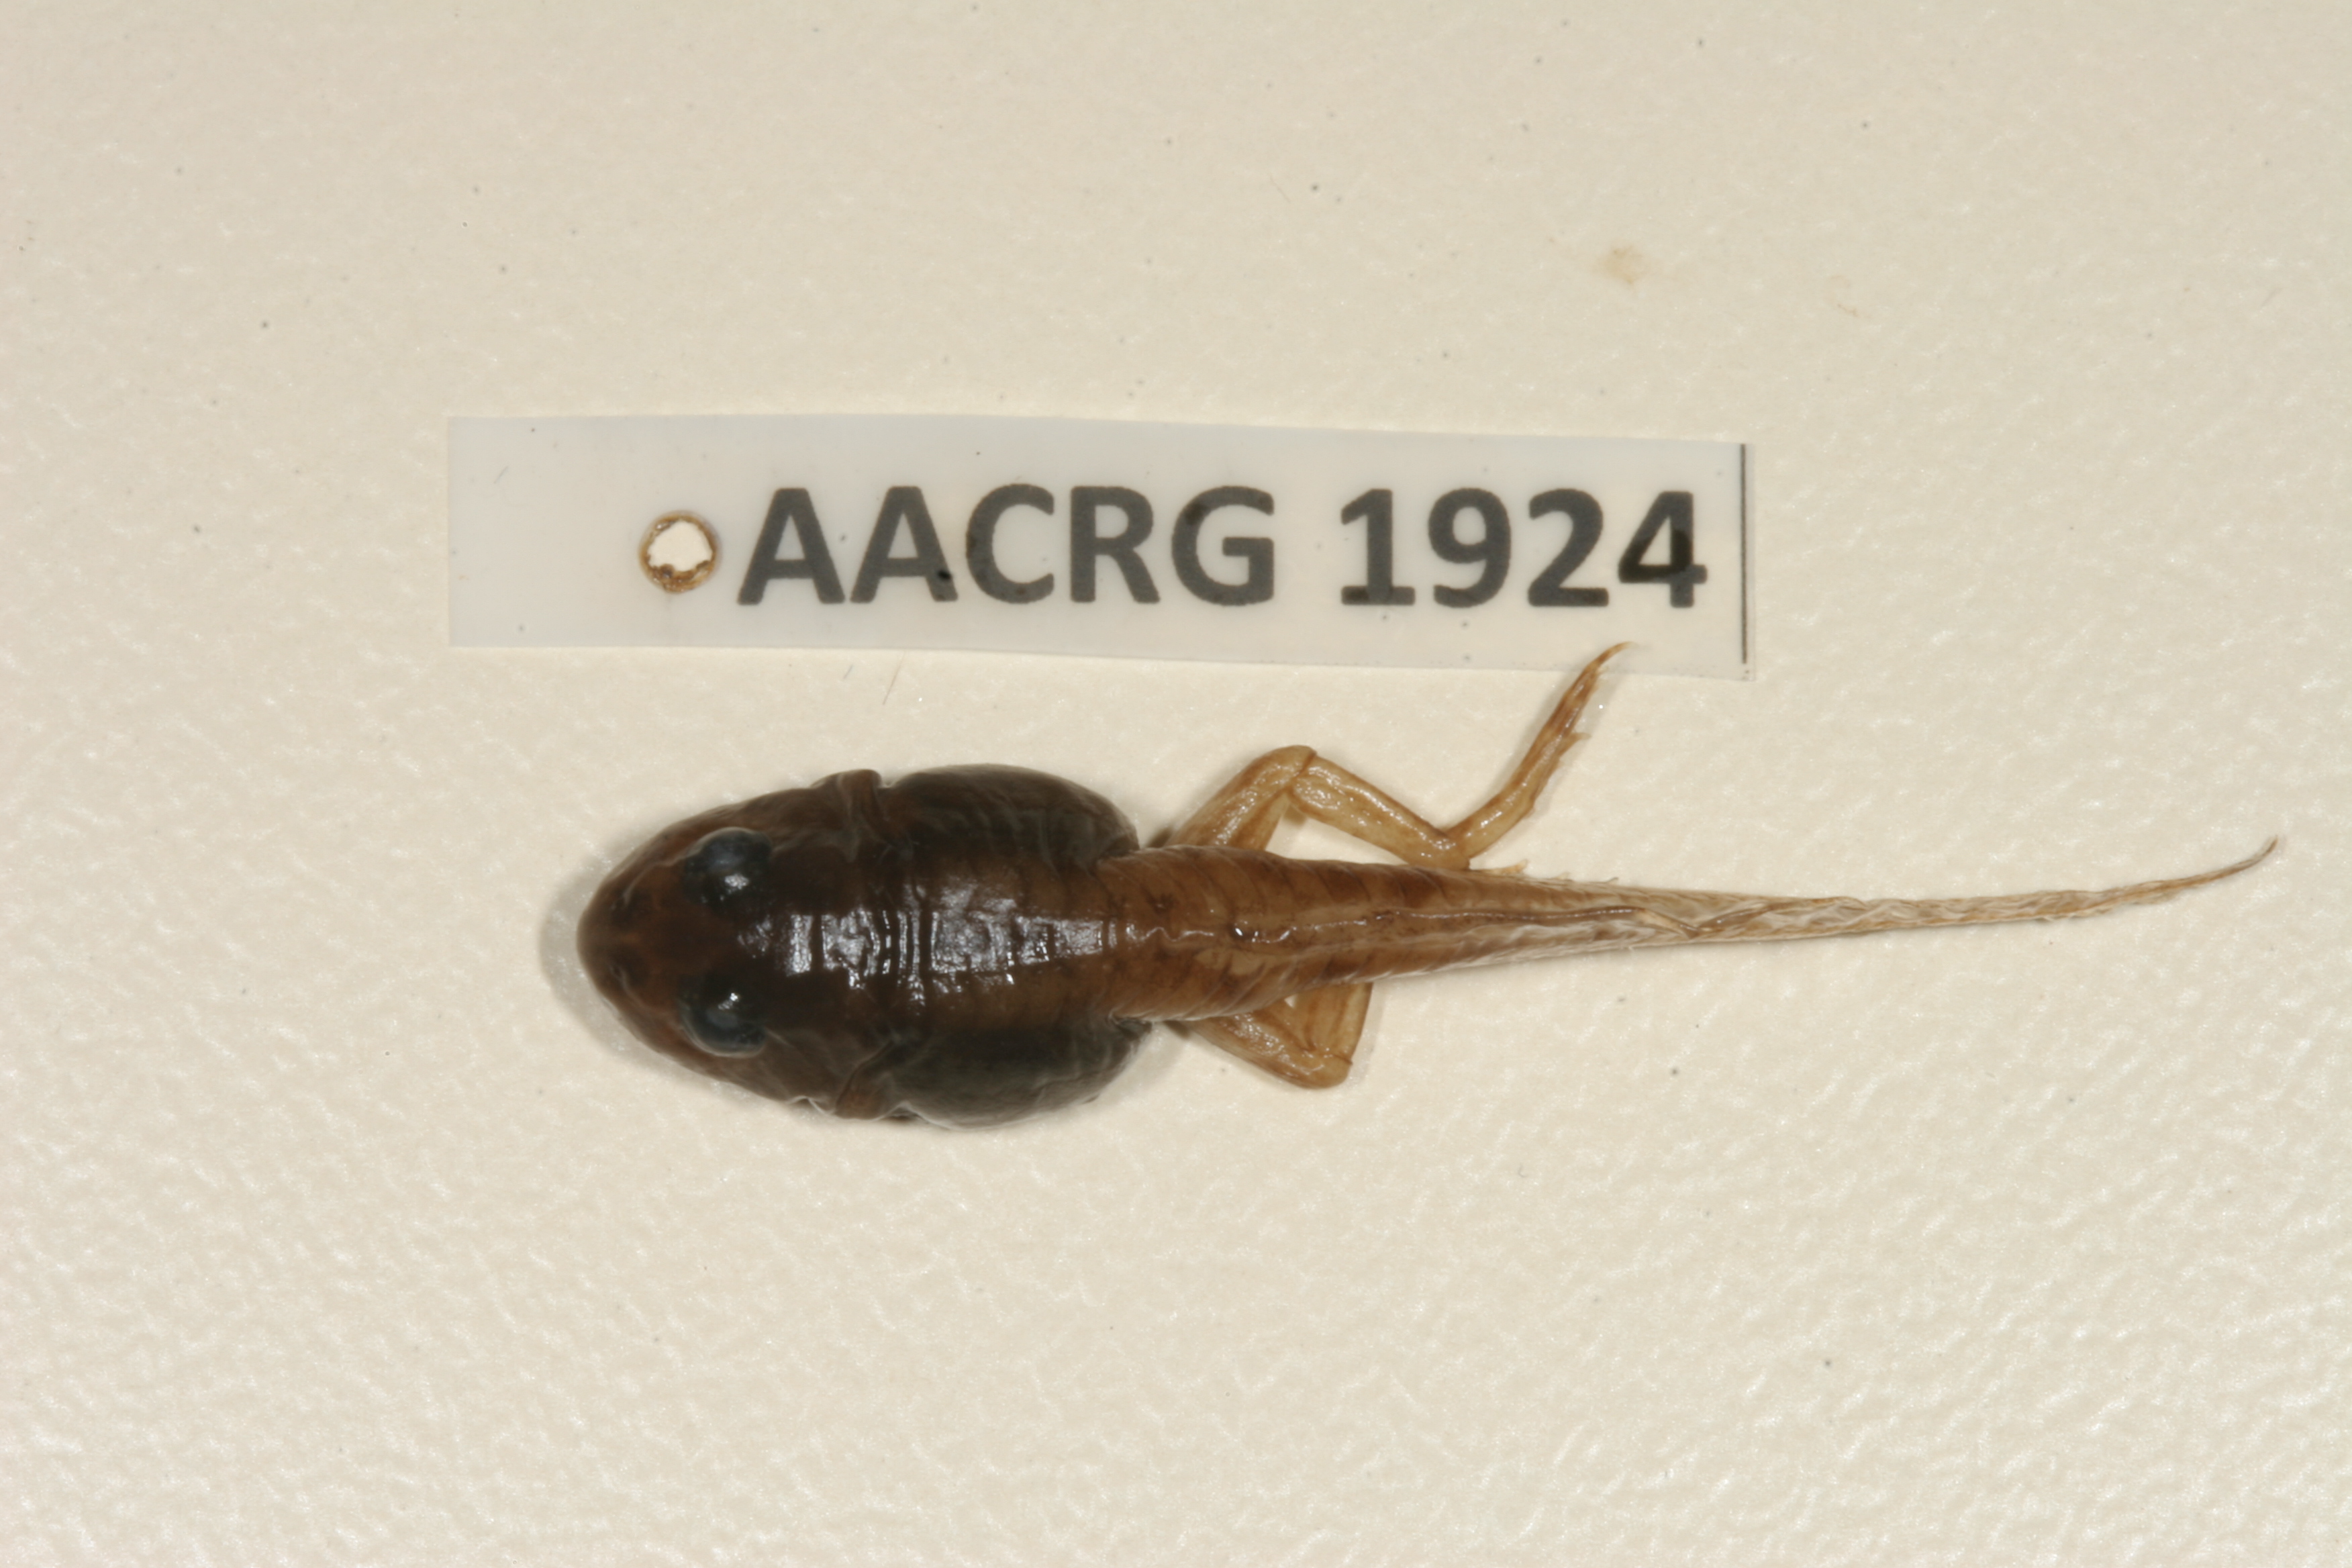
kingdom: Animalia
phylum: Chordata
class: Amphibia
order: Anura
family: Ptychadenidae
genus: Ptychadena
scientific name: Ptychadena mossambica
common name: Mozambique ridged frog
